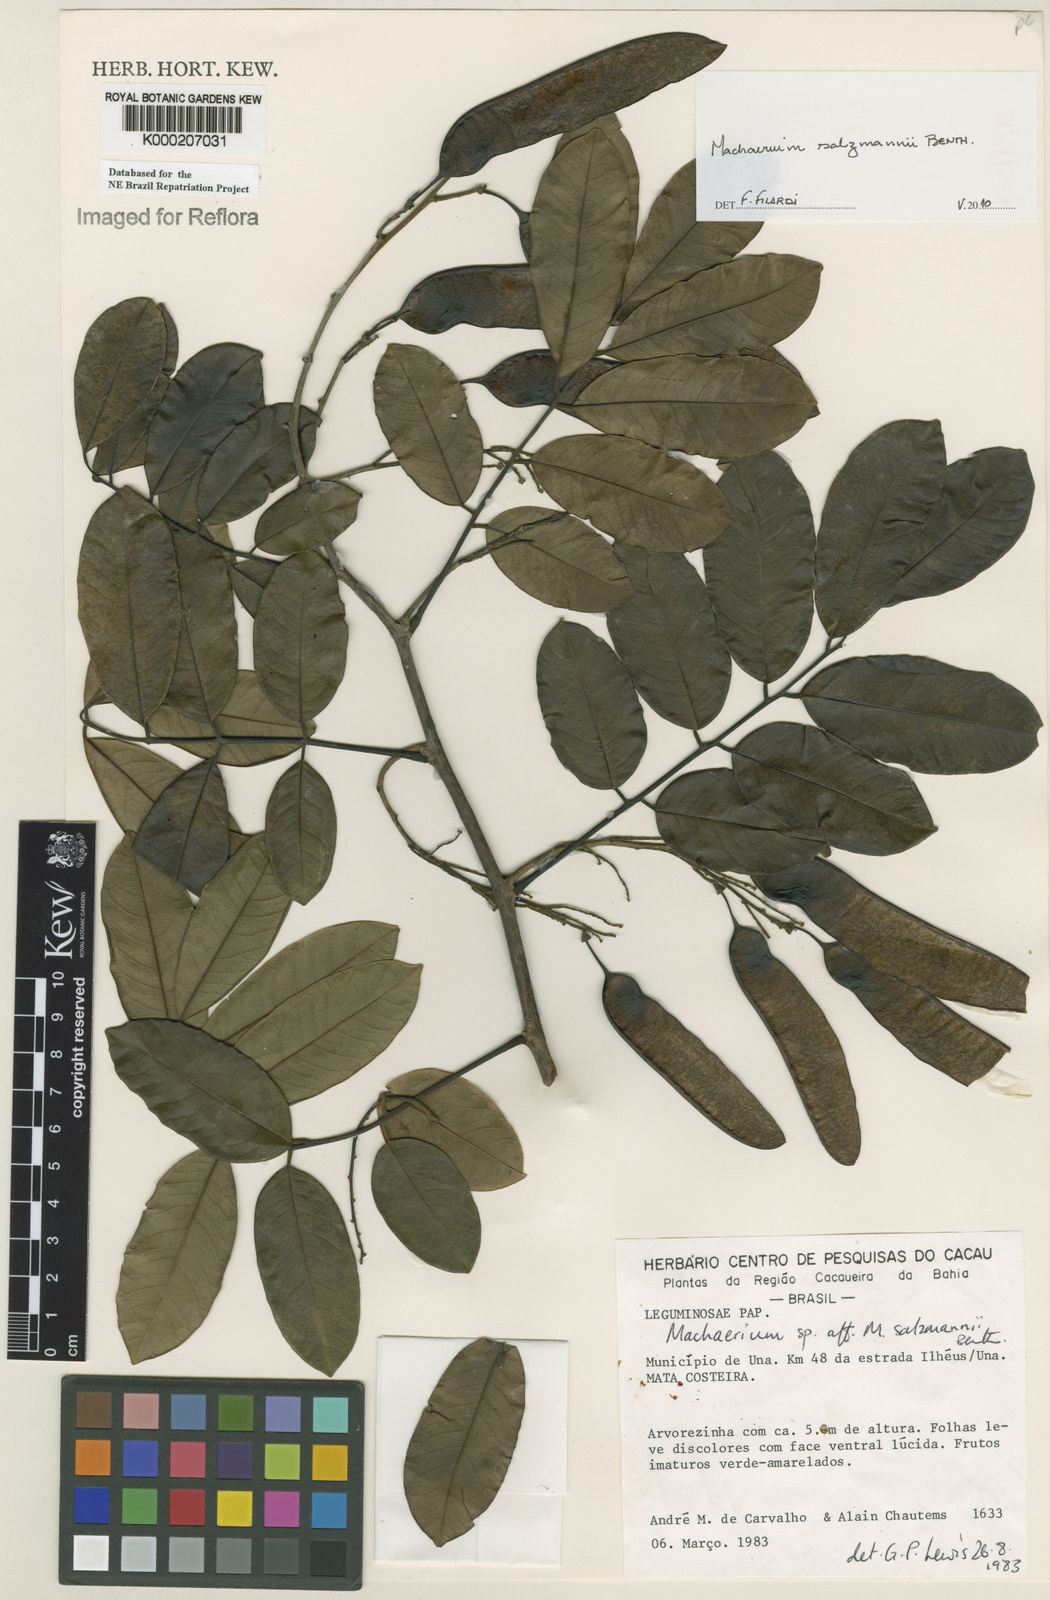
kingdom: Plantae
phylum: Tracheophyta
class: Magnoliopsida
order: Fabales
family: Fabaceae
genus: Machaerium
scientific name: Machaerium salzmannii
